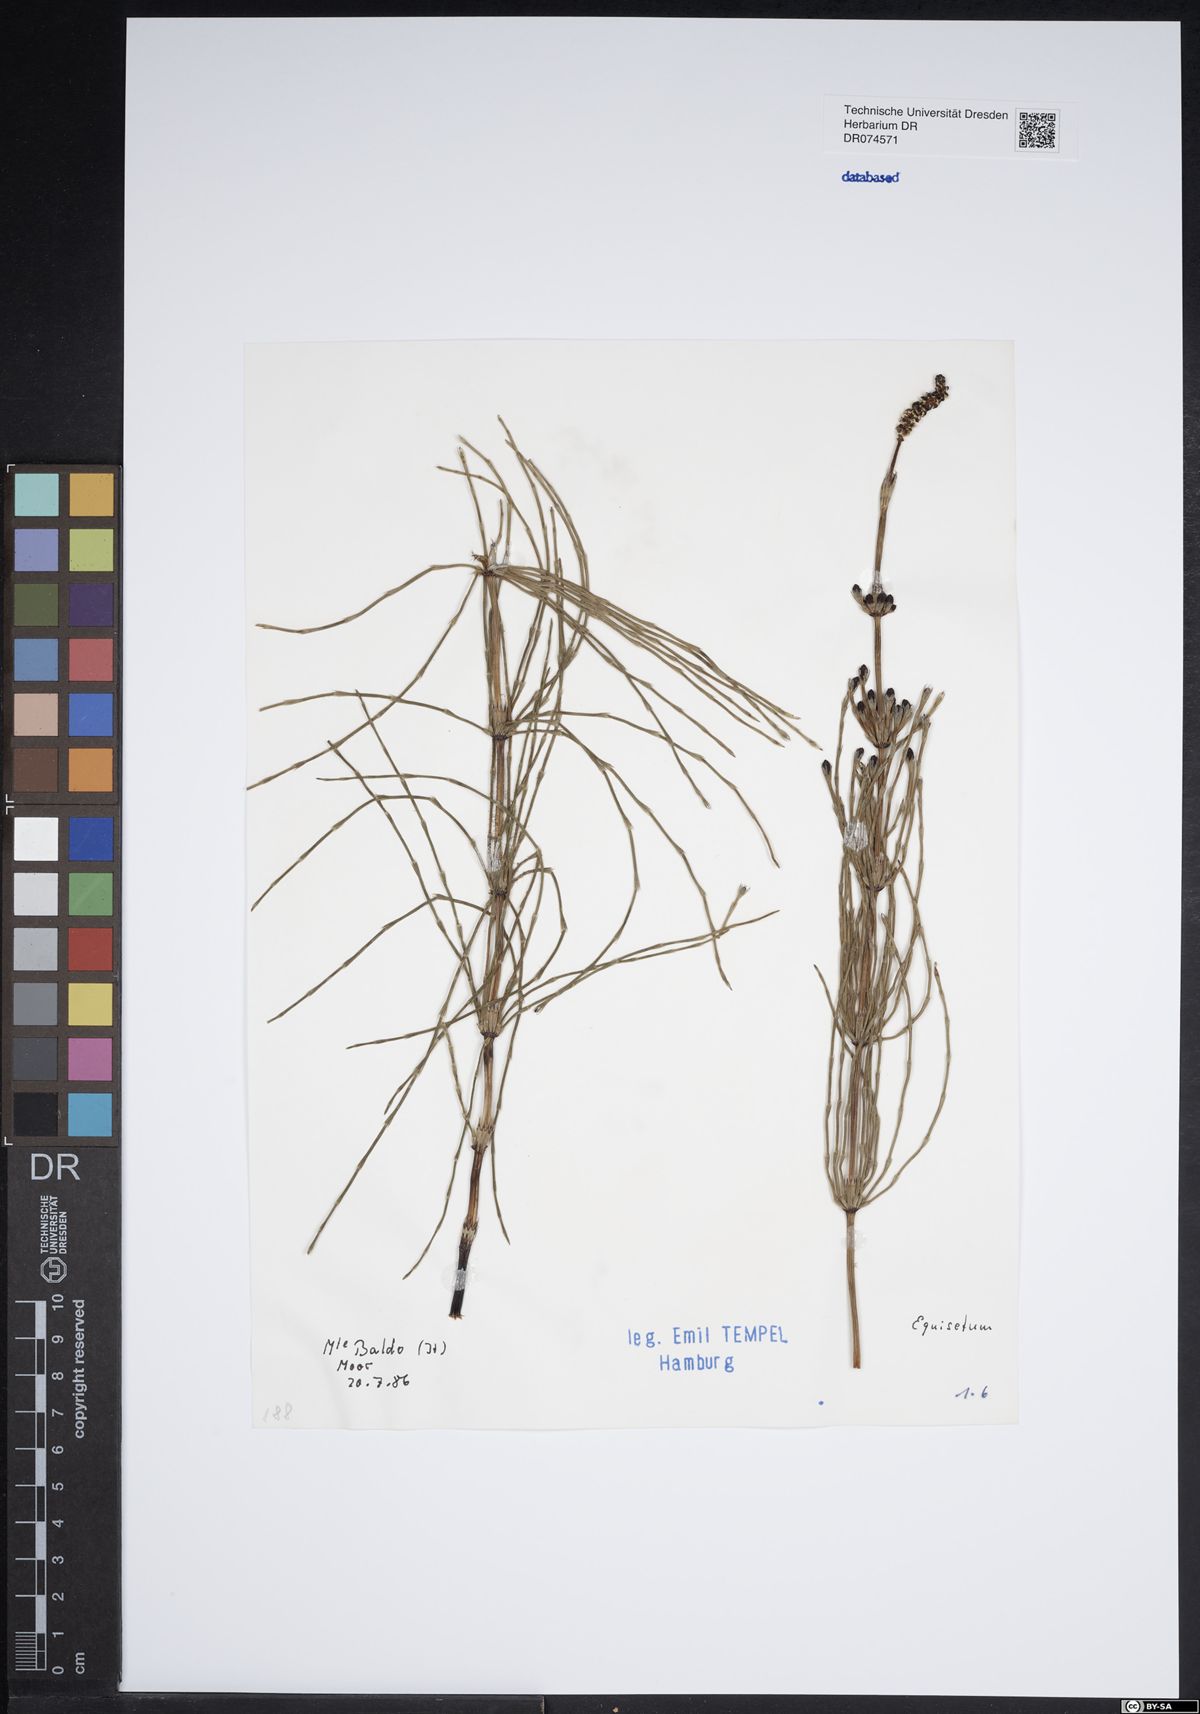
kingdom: Plantae
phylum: Tracheophyta
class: Polypodiopsida
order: Equisetales
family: Equisetaceae
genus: Equisetum
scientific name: Equisetum
